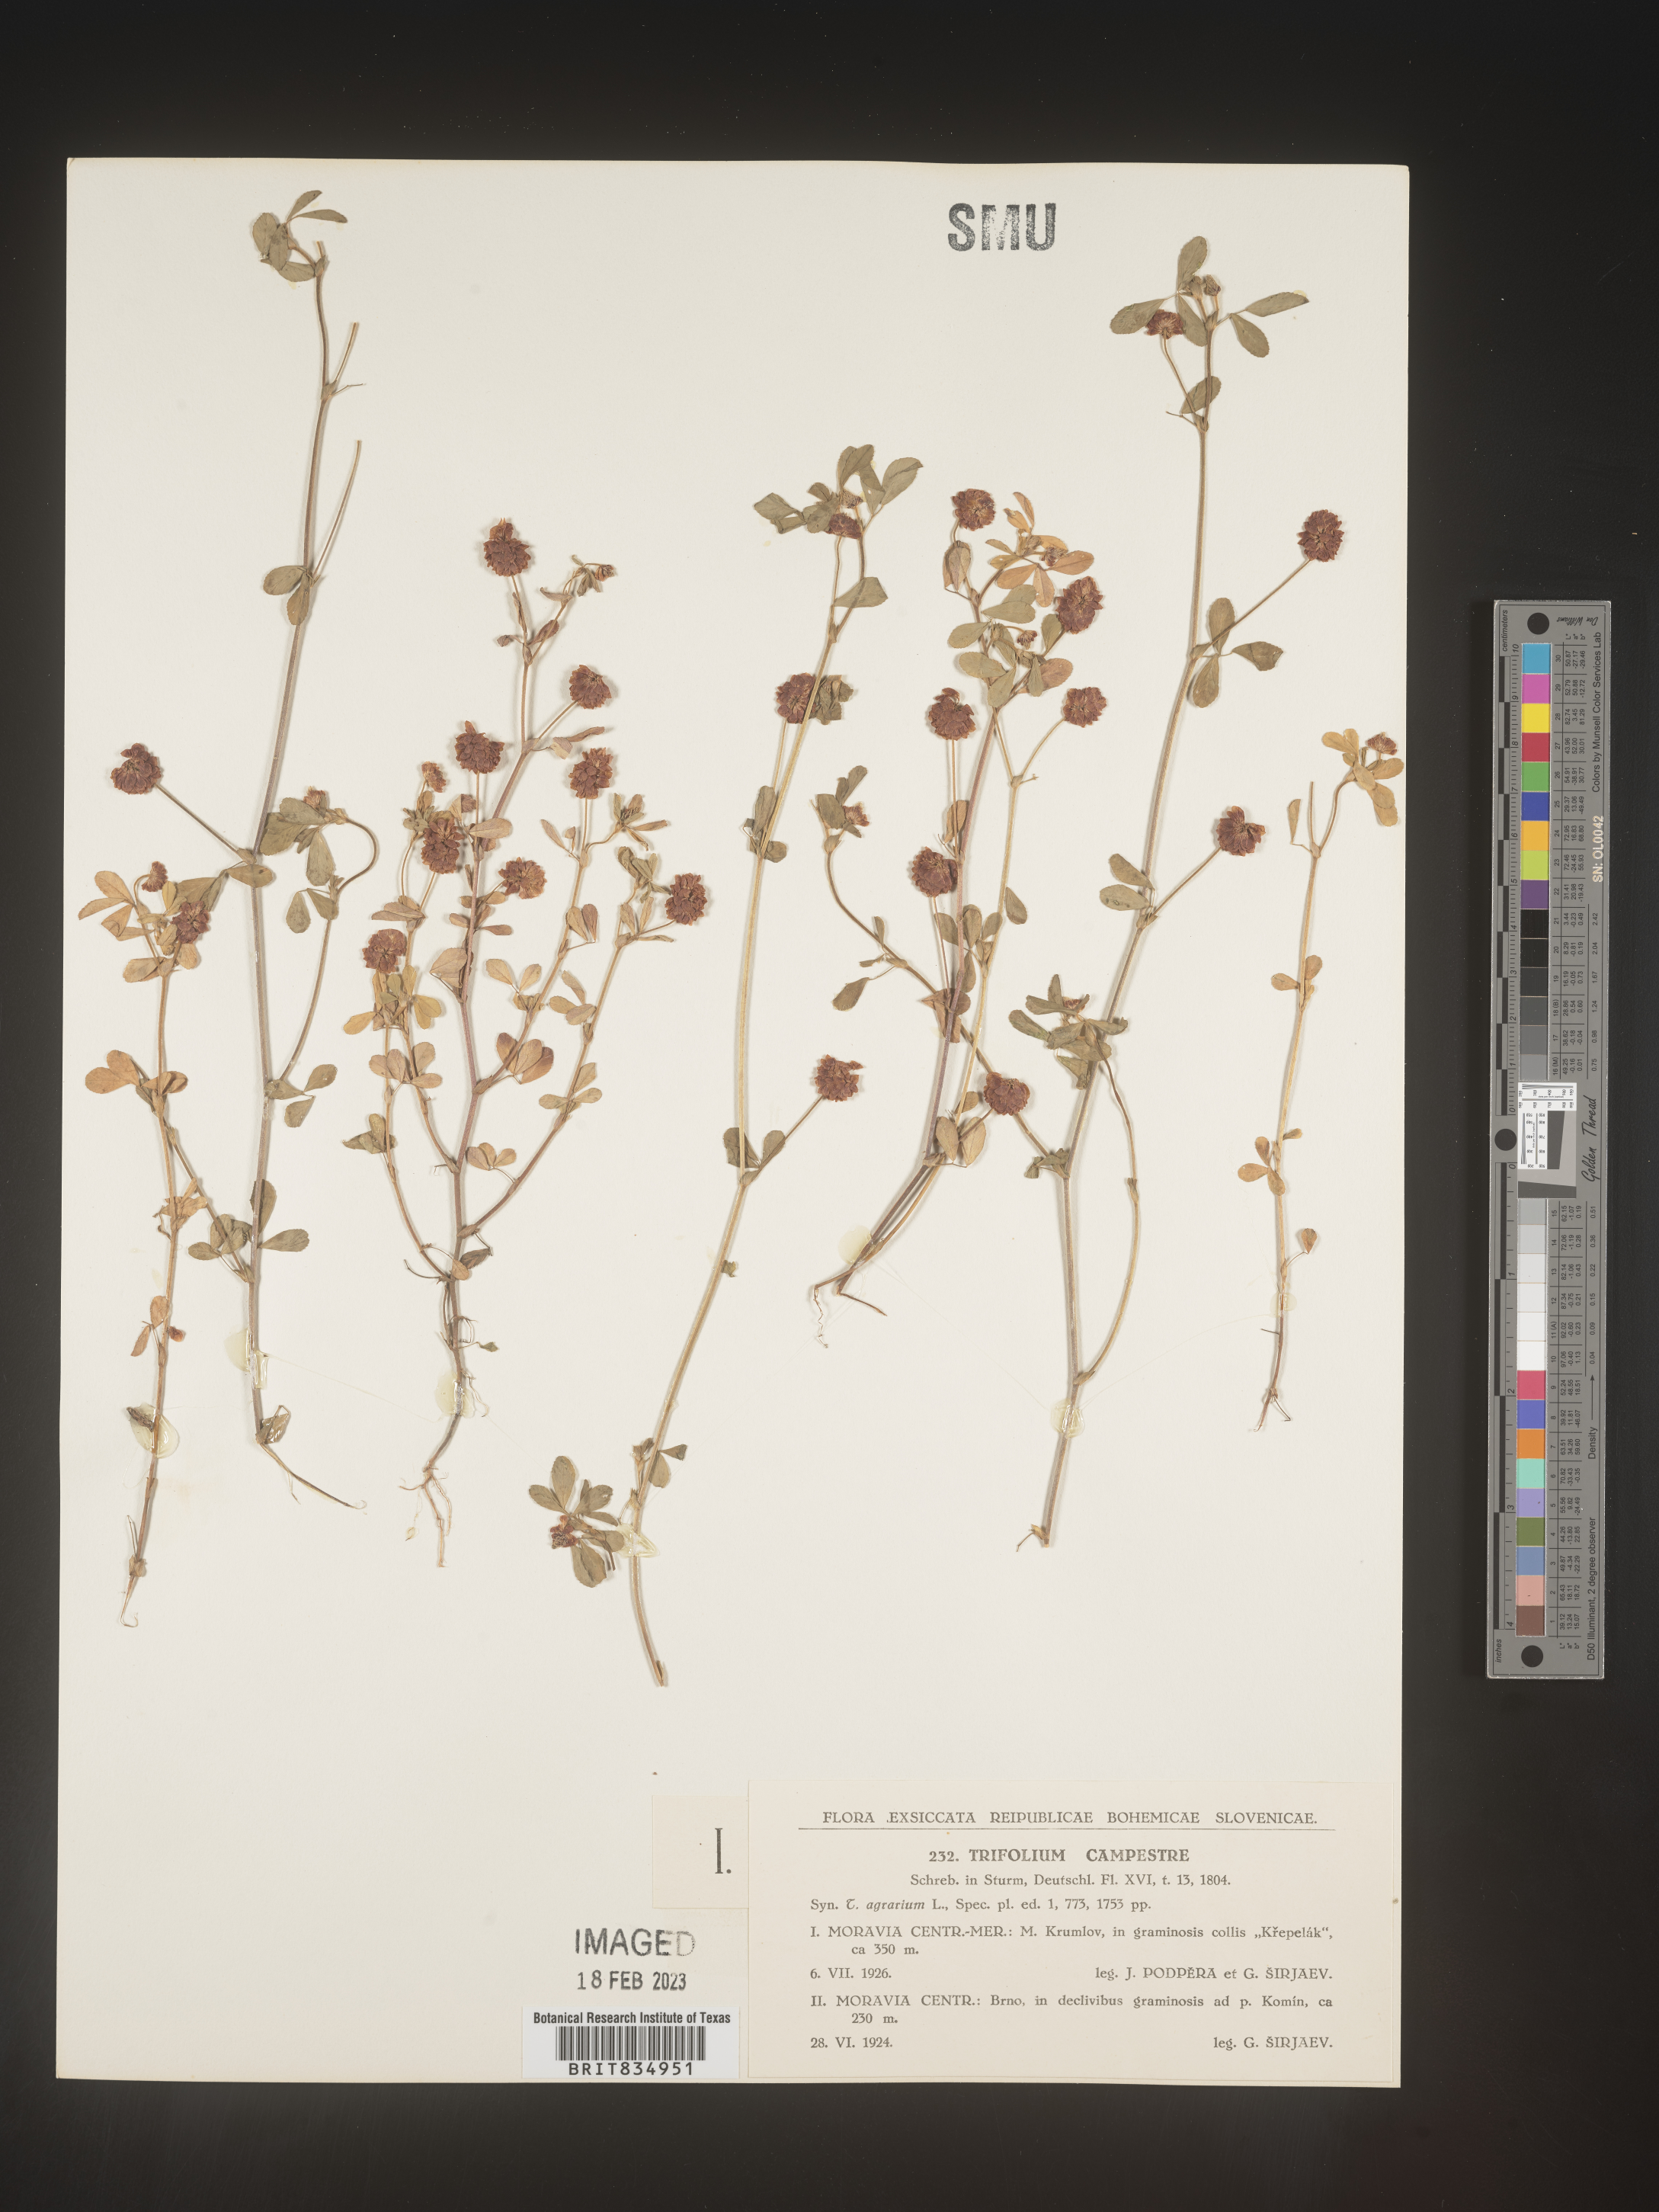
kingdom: Plantae
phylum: Tracheophyta
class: Magnoliopsida
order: Fabales
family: Fabaceae
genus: Trifolium
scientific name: Trifolium
